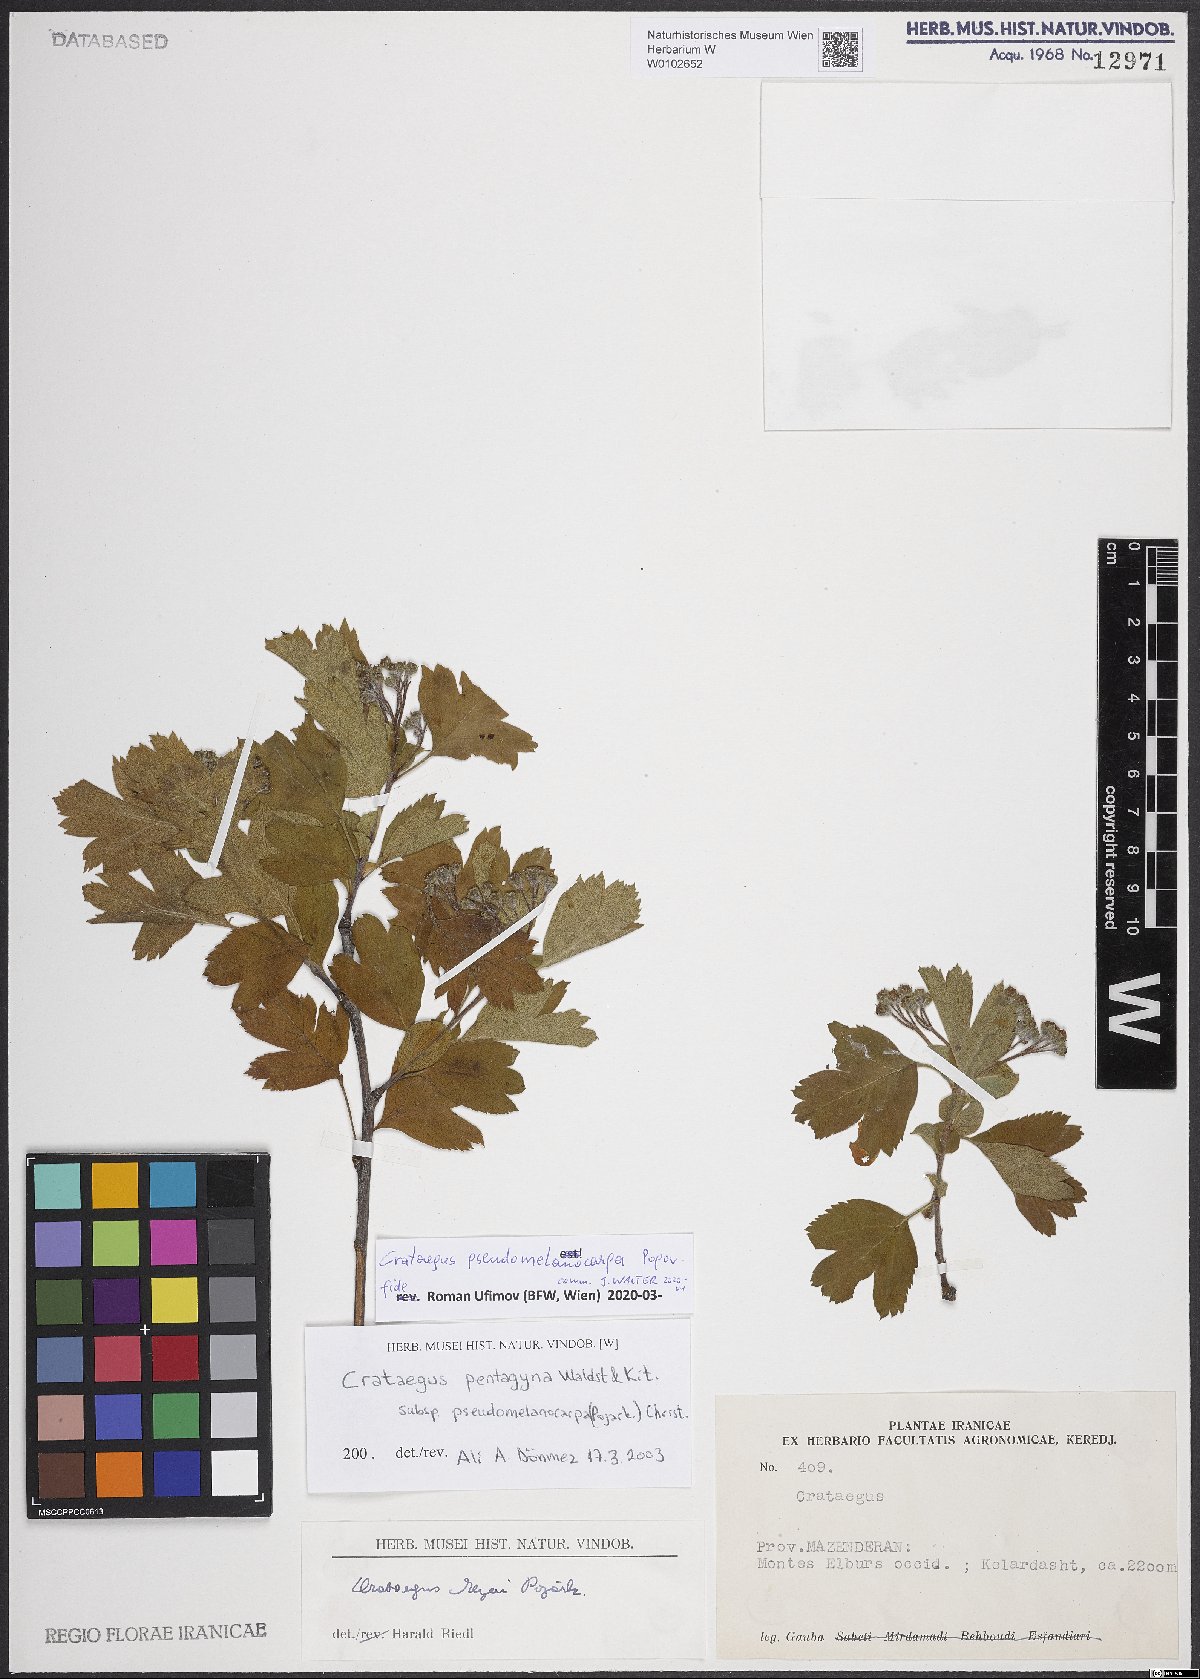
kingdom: Plantae
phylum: Tracheophyta
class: Magnoliopsida
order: Rosales
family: Rosaceae
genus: Crataegus
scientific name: Crataegus pentagyna
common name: Small-flowered black hawthorn
